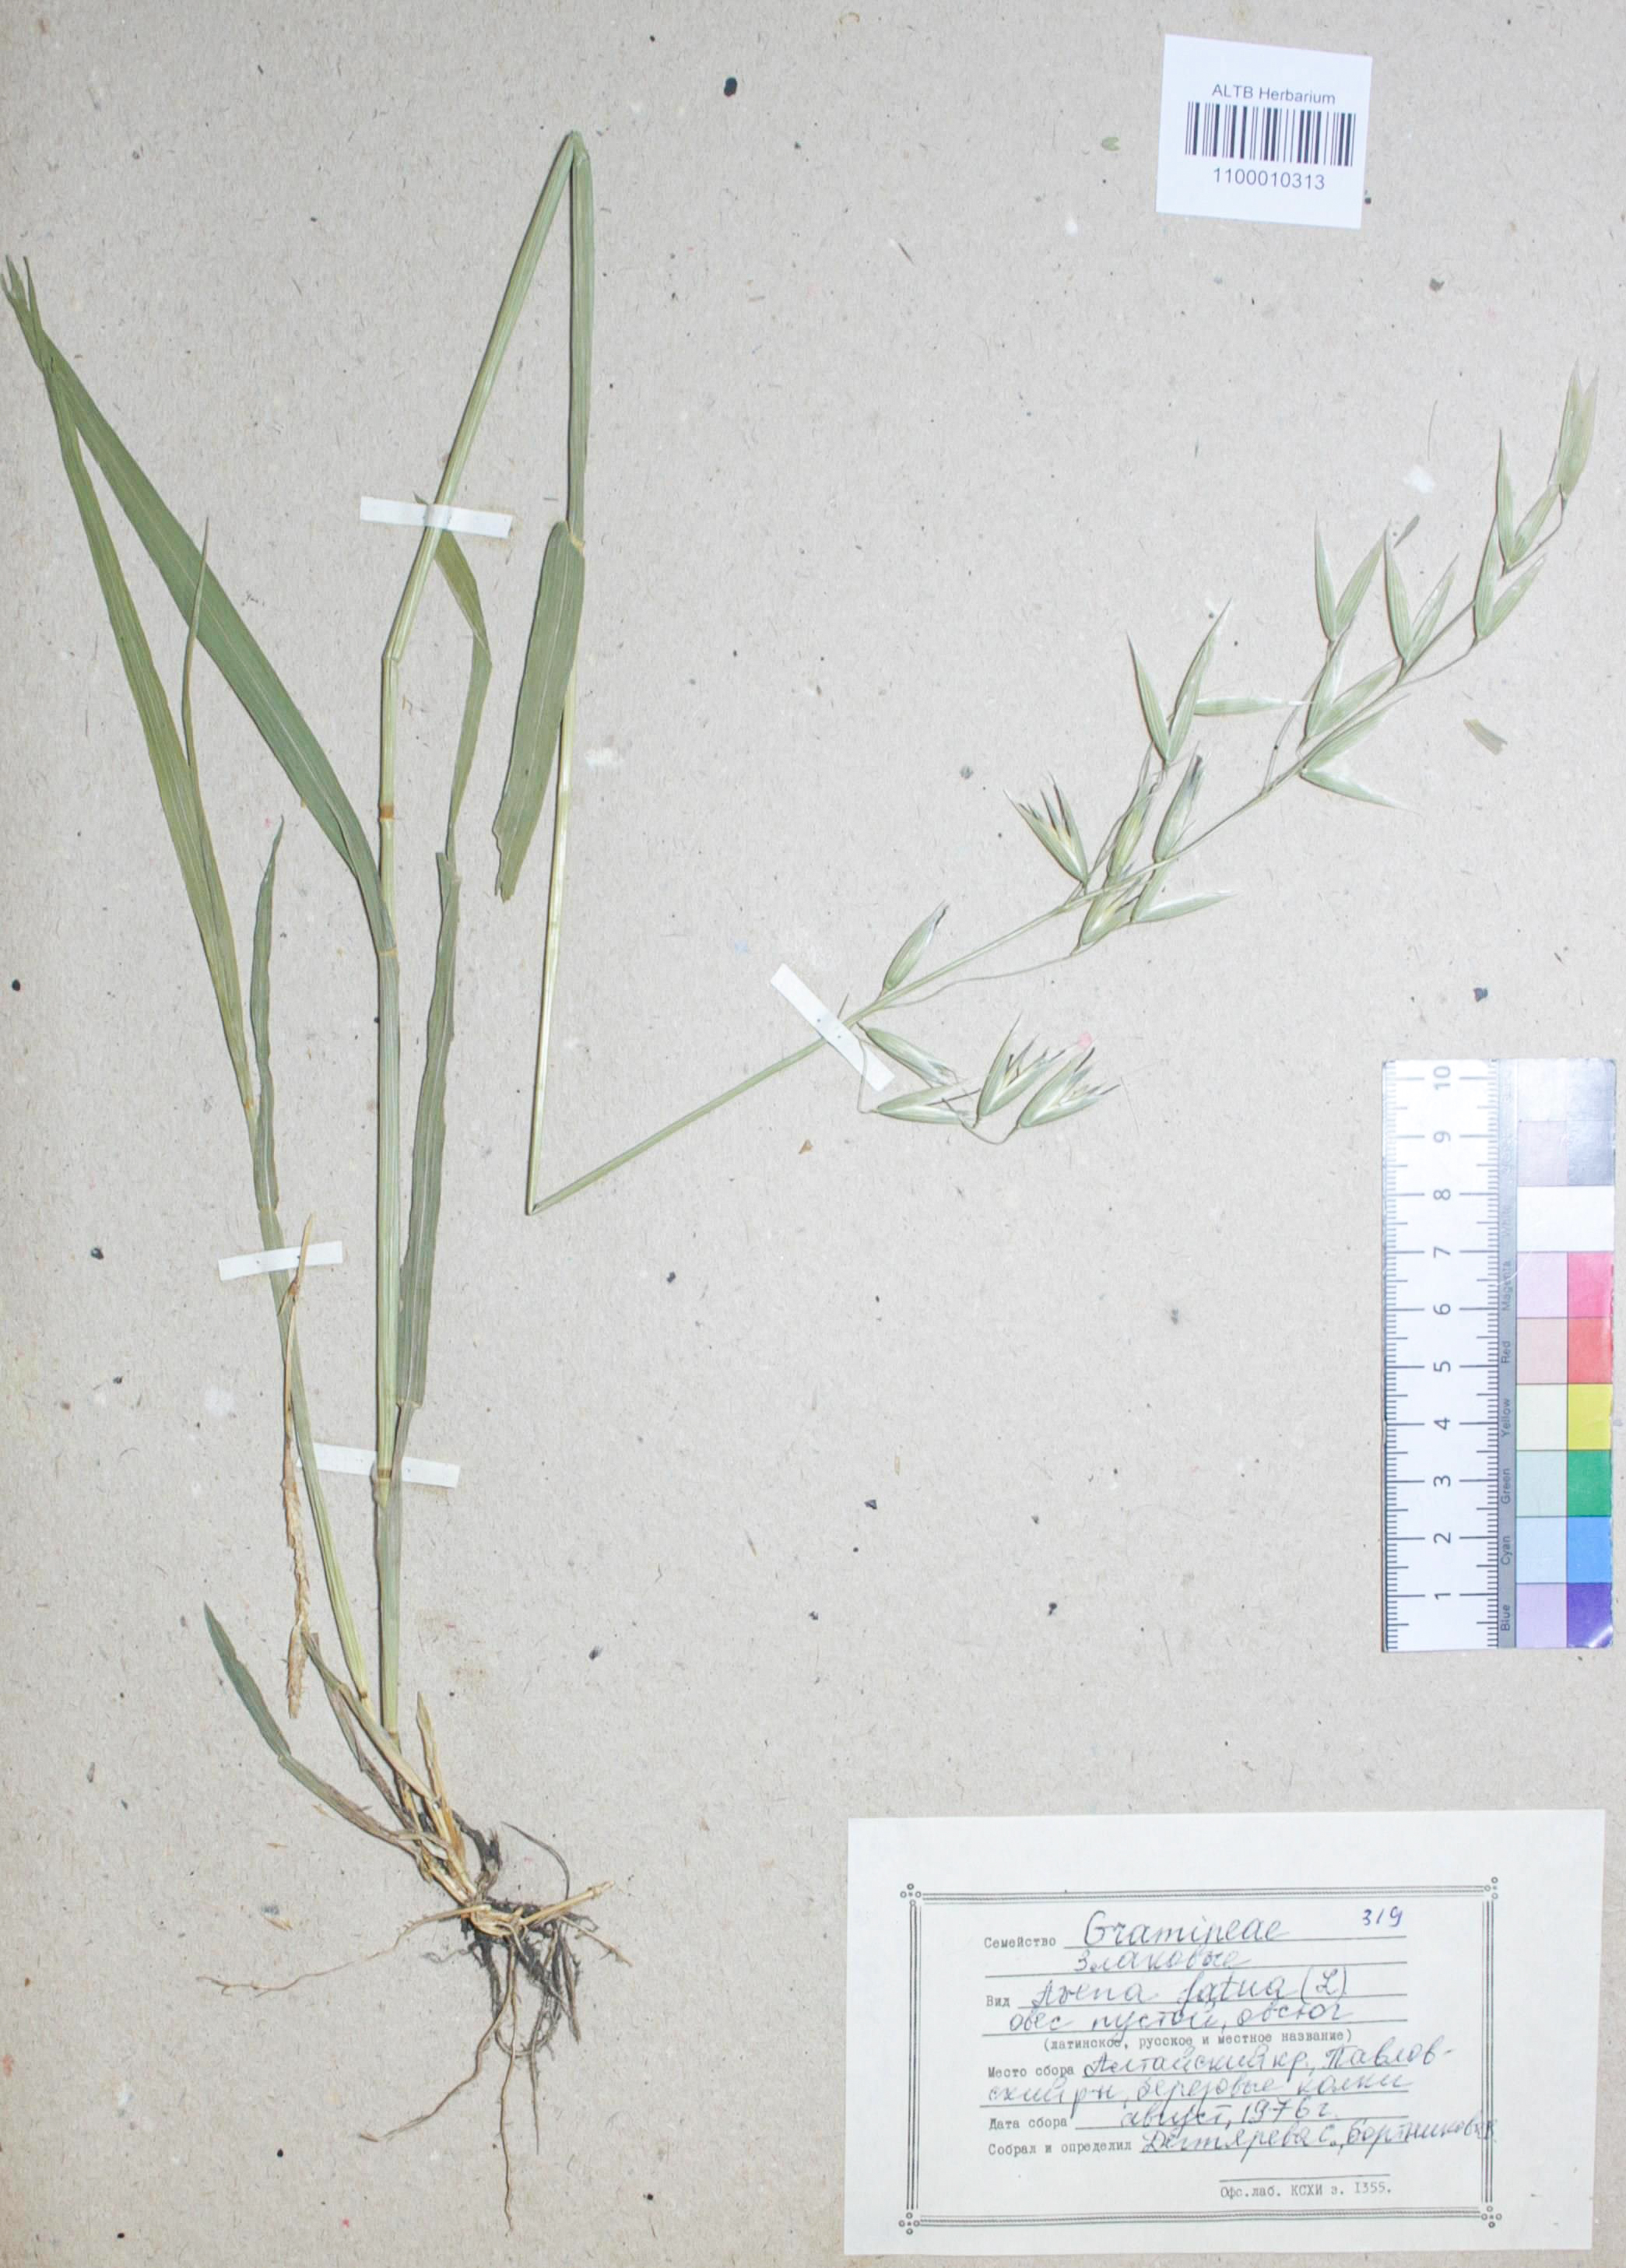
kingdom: Plantae
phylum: Tracheophyta
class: Liliopsida
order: Poales
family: Poaceae
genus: Avena
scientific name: Avena fatua
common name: Wild oat
